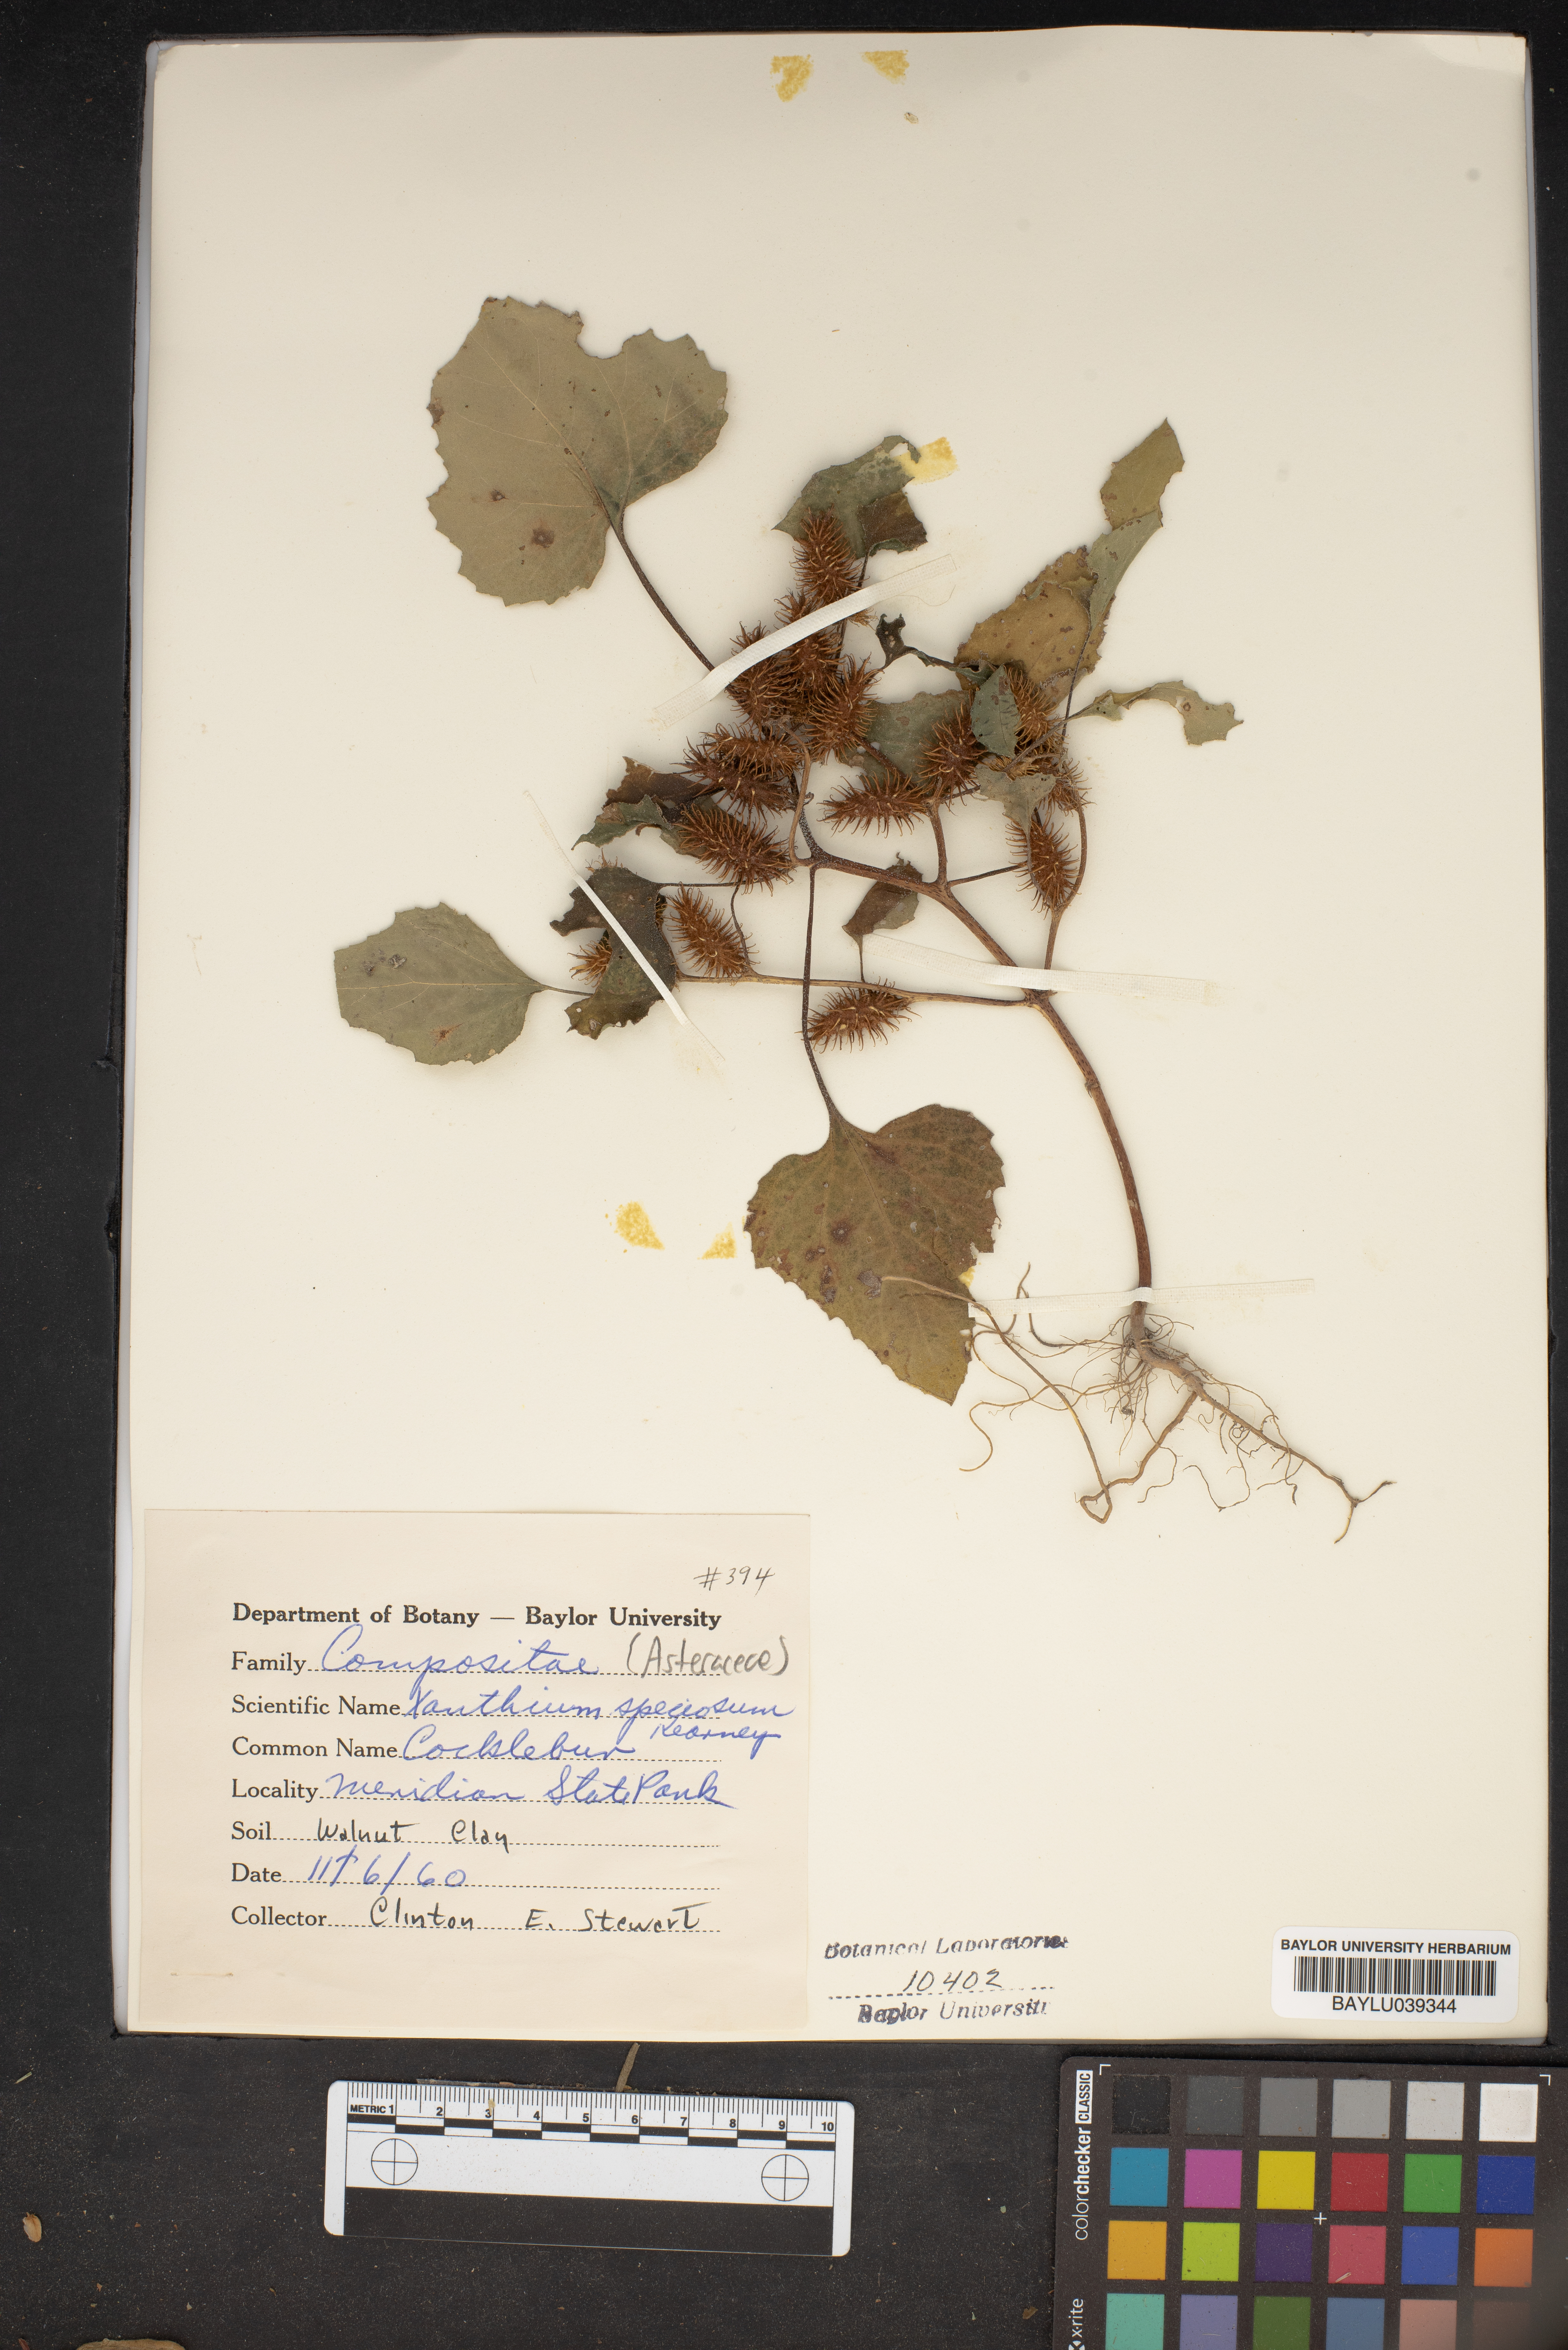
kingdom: Plantae
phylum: Tracheophyta
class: Magnoliopsida
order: Asterales
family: Asteraceae
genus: Xanthium
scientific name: Xanthium orientale
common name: Californian burr
